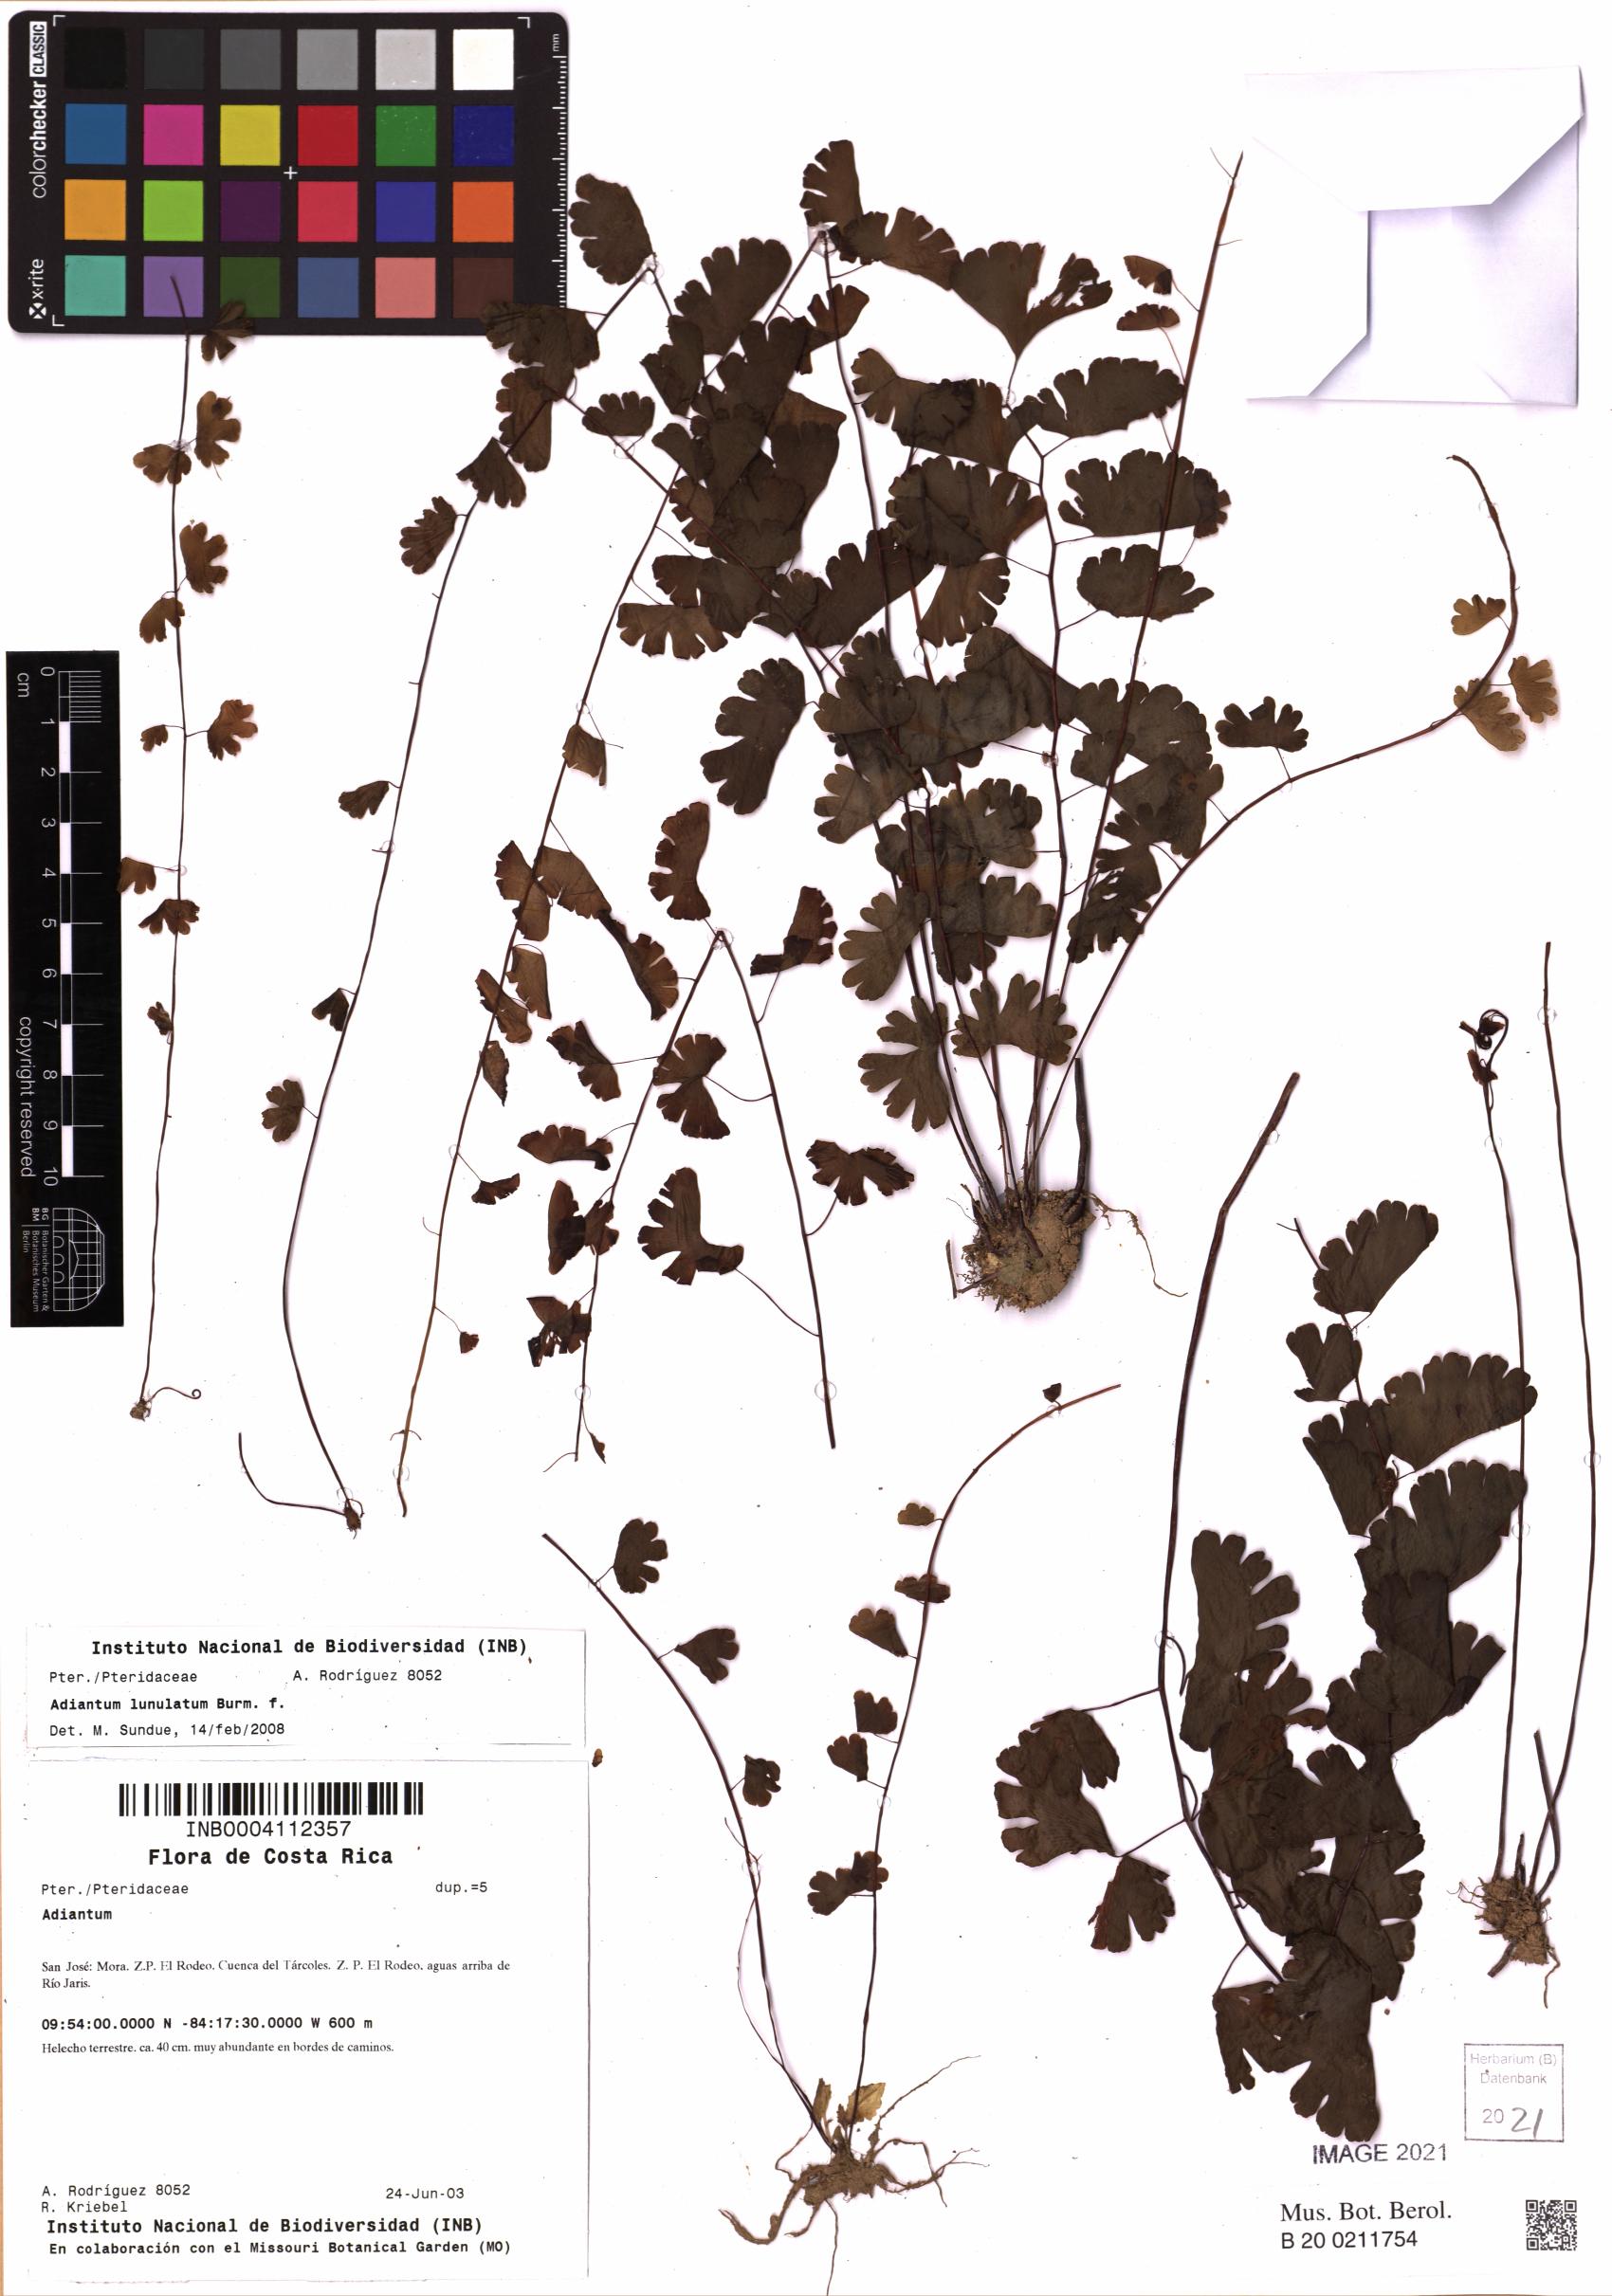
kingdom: Plantae
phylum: Tracheophyta
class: Polypodiopsida
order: Polypodiales
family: Pteridaceae
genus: Adiantum
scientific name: Adiantum philippense
